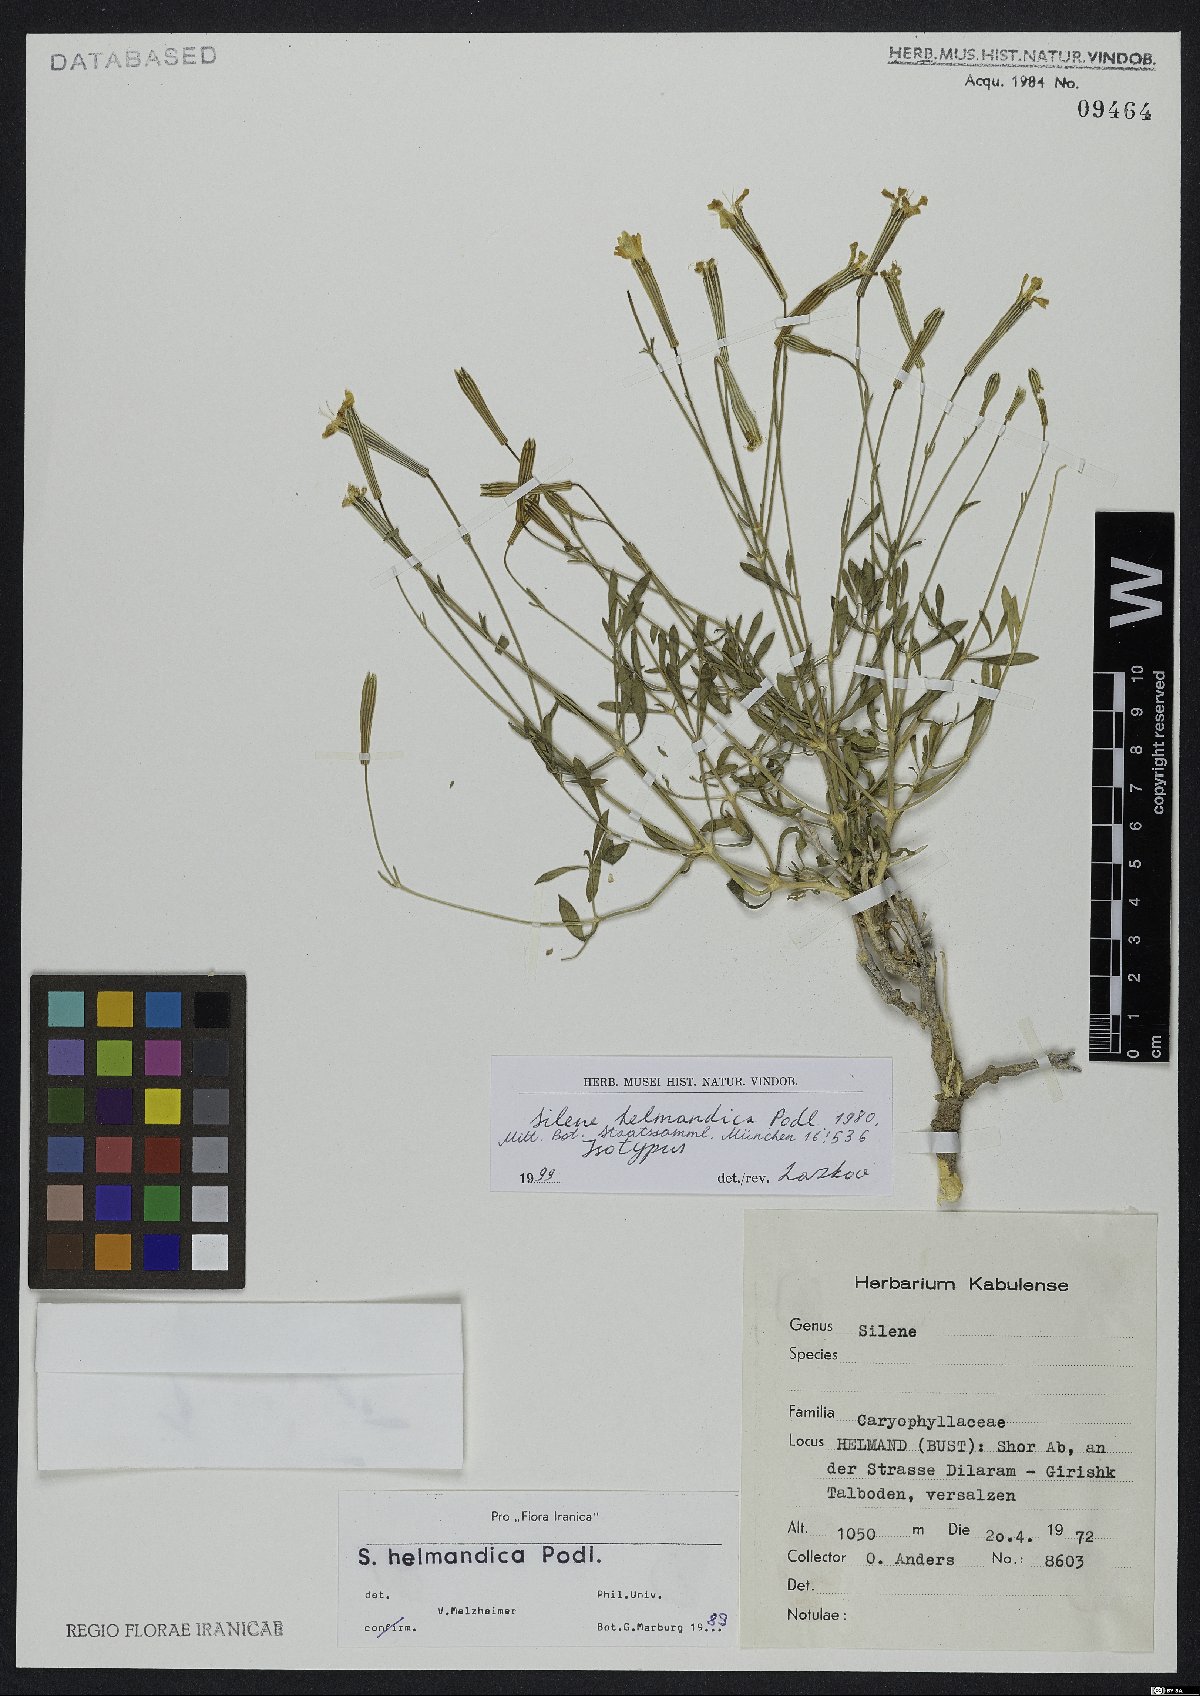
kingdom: Plantae
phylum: Tracheophyta
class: Magnoliopsida
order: Caryophyllales
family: Caryophyllaceae
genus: Silene
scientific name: Silene helmandica
